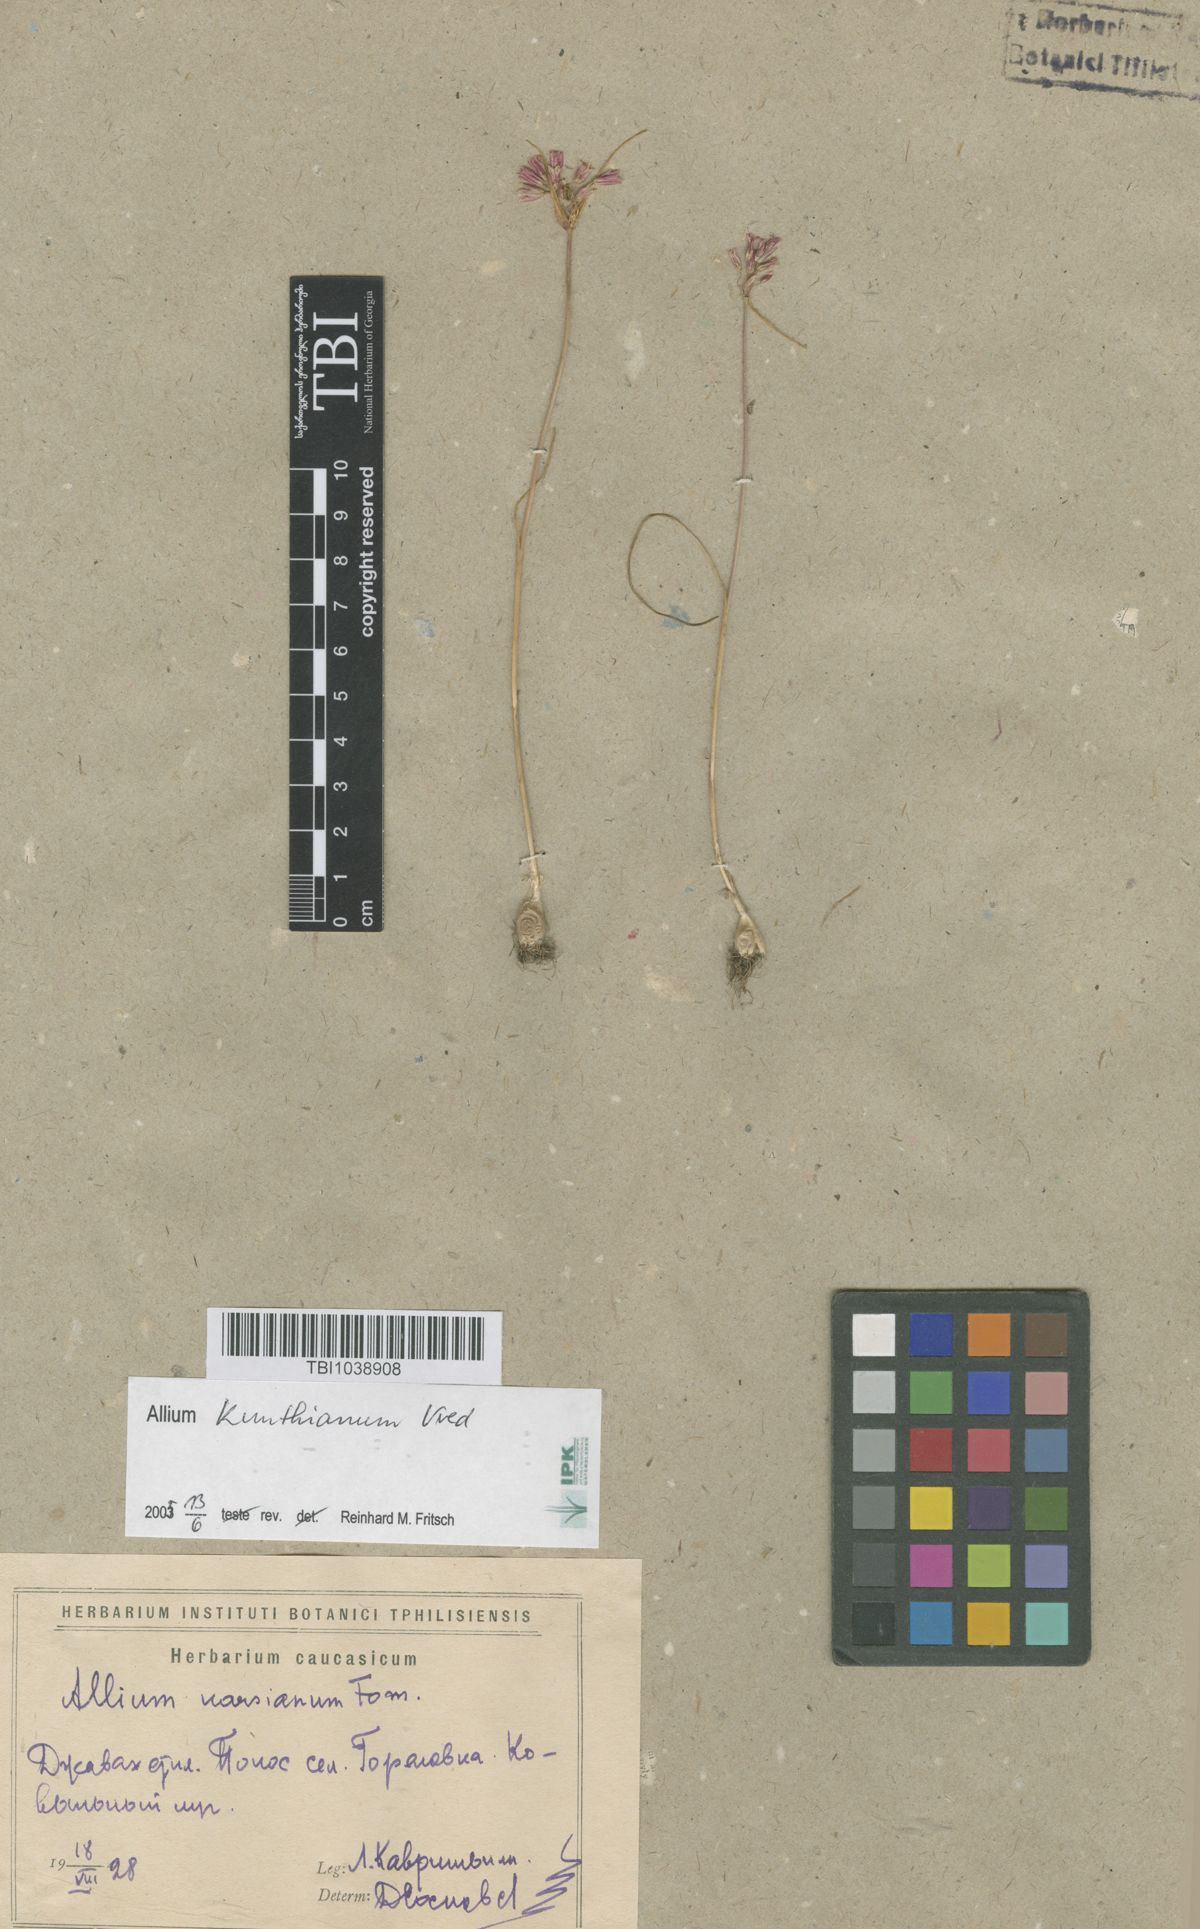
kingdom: Plantae
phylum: Tracheophyta
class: Liliopsida
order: Asparagales
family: Amaryllidaceae
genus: Allium
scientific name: Allium paniculatum
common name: Pale garlic
